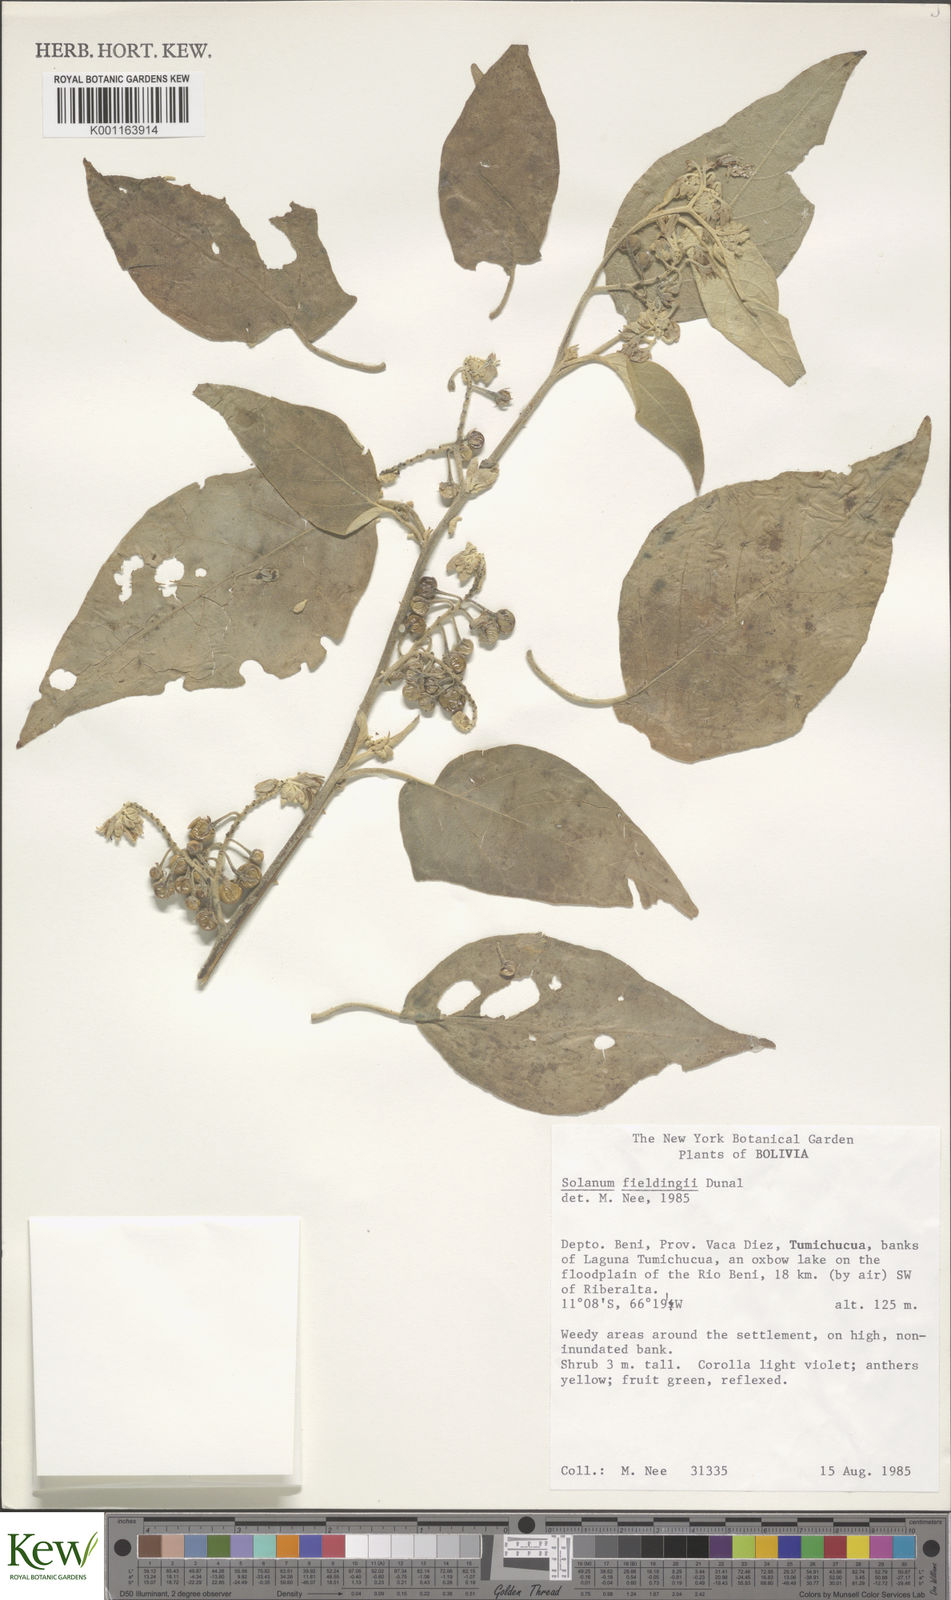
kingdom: Plantae
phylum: Tracheophyta
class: Magnoliopsida
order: Solanales
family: Solanaceae
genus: Solanum
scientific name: Solanum acutilobum
